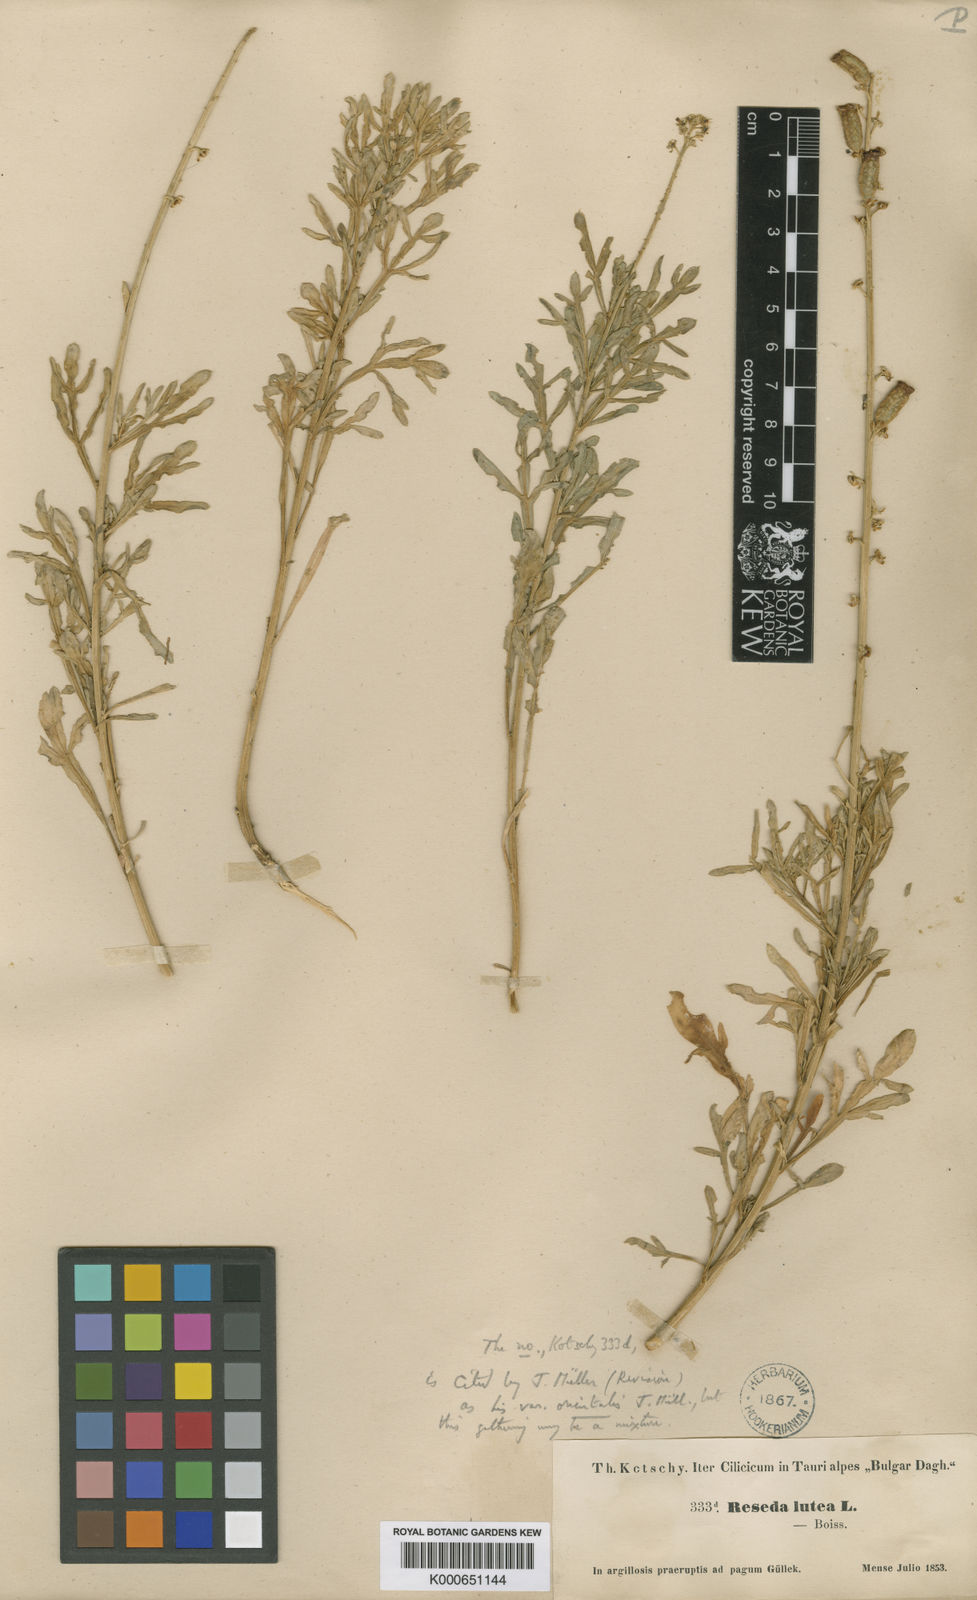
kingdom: Plantae
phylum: Tracheophyta
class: Magnoliopsida
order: Brassicales
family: Resedaceae
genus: Reseda
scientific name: Reseda lutea
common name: Wild mignonette
